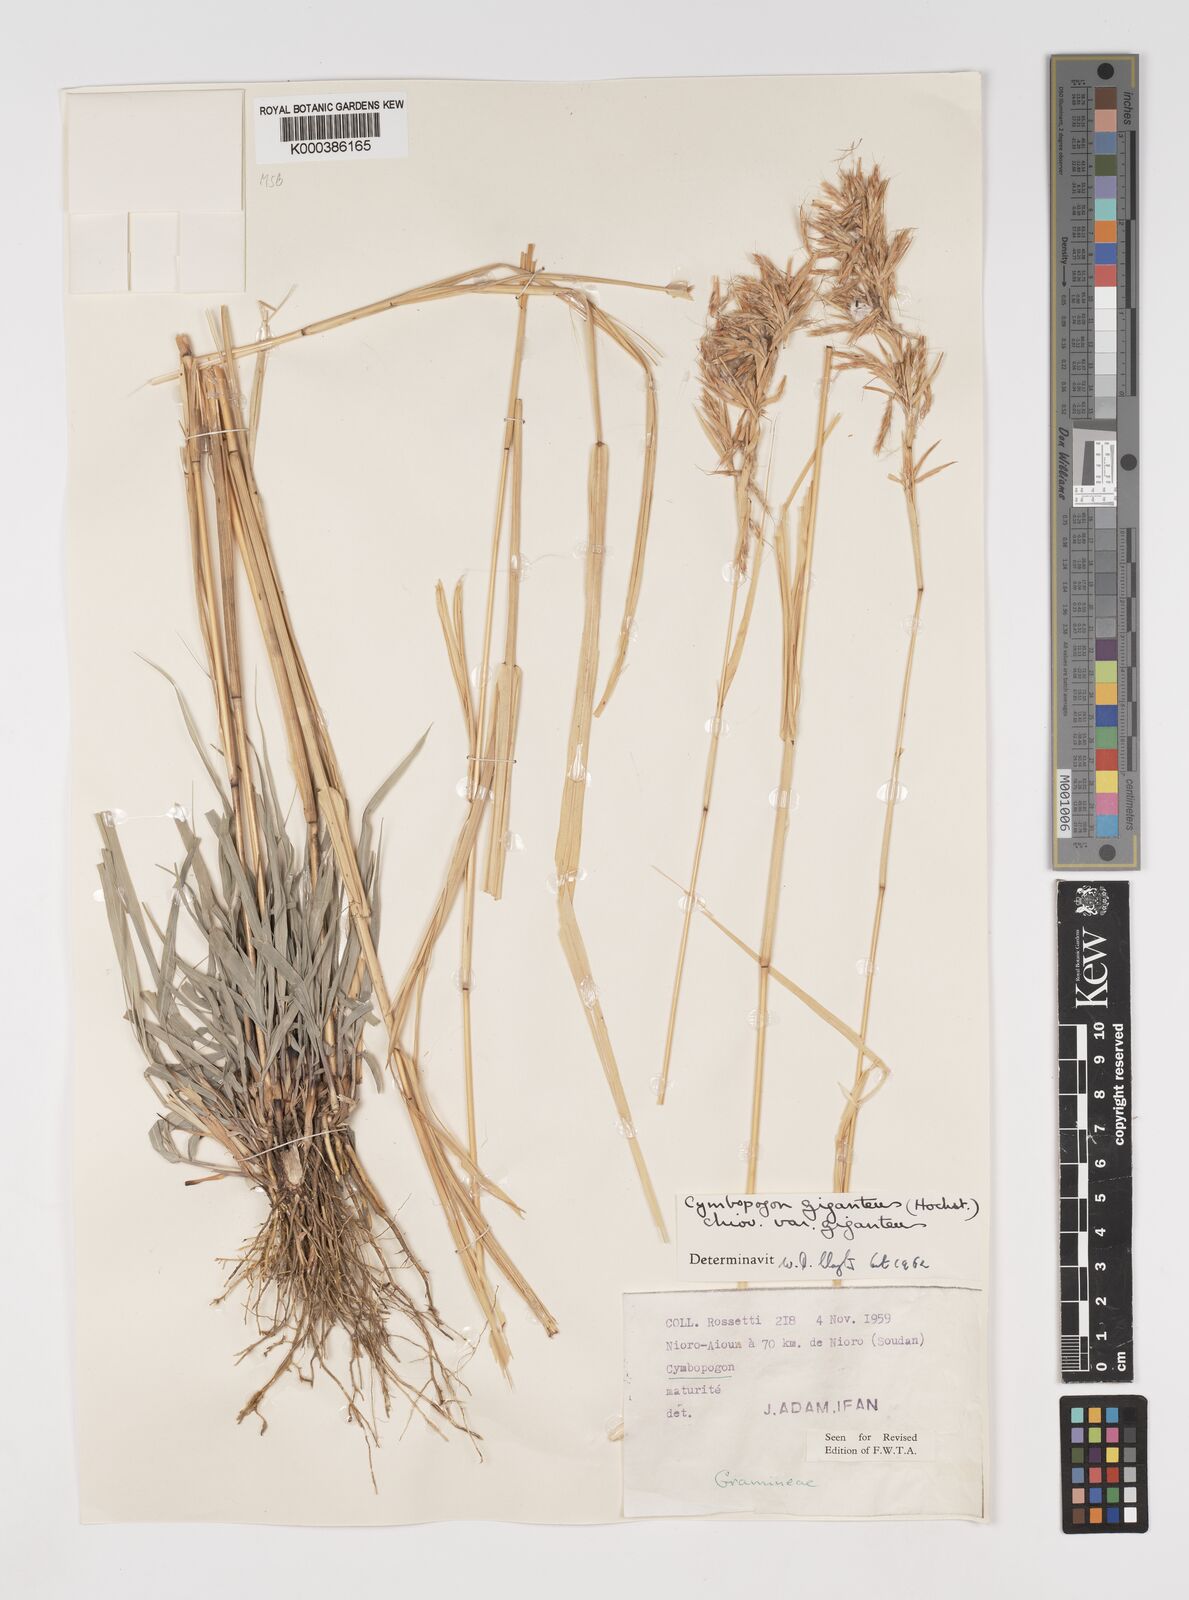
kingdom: Plantae
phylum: Tracheophyta
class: Liliopsida
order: Poales
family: Poaceae
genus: Cymbopogon
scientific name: Cymbopogon giganteus
